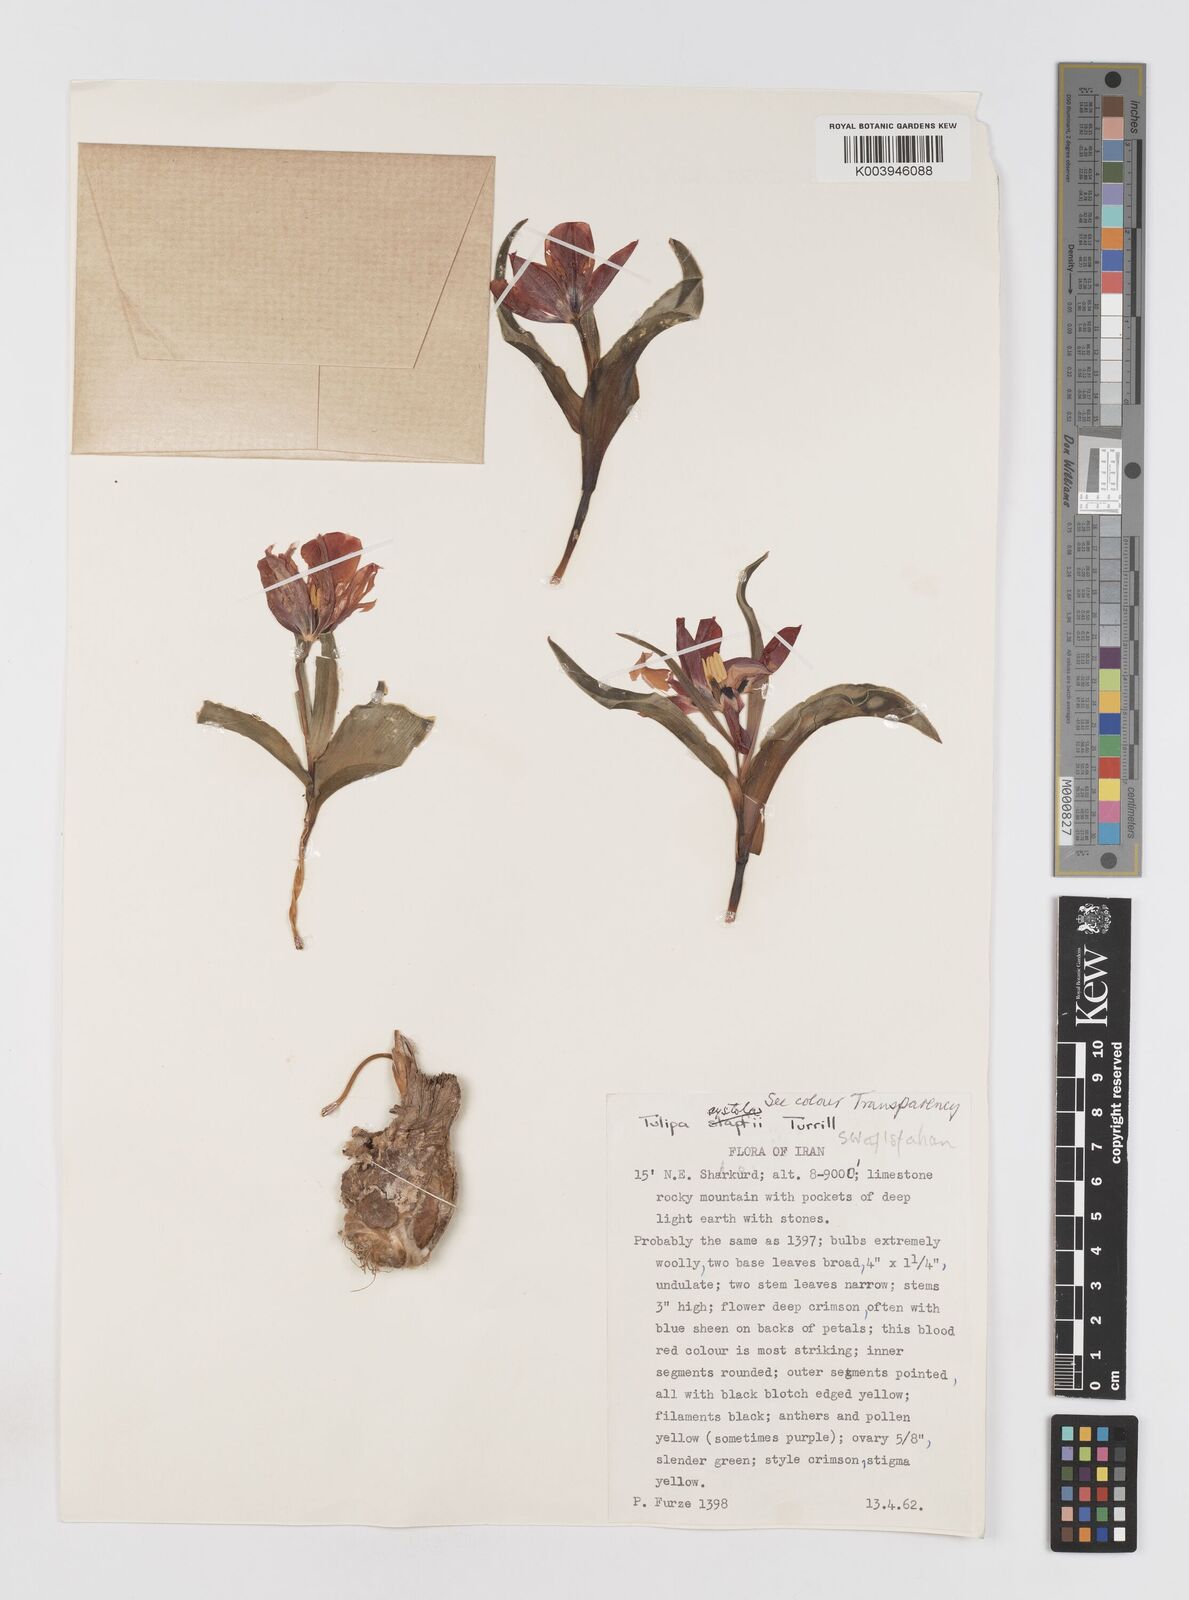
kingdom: Plantae
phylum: Tracheophyta
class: Liliopsida
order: Liliales
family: Liliaceae
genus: Tulipa
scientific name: Tulipa systola
